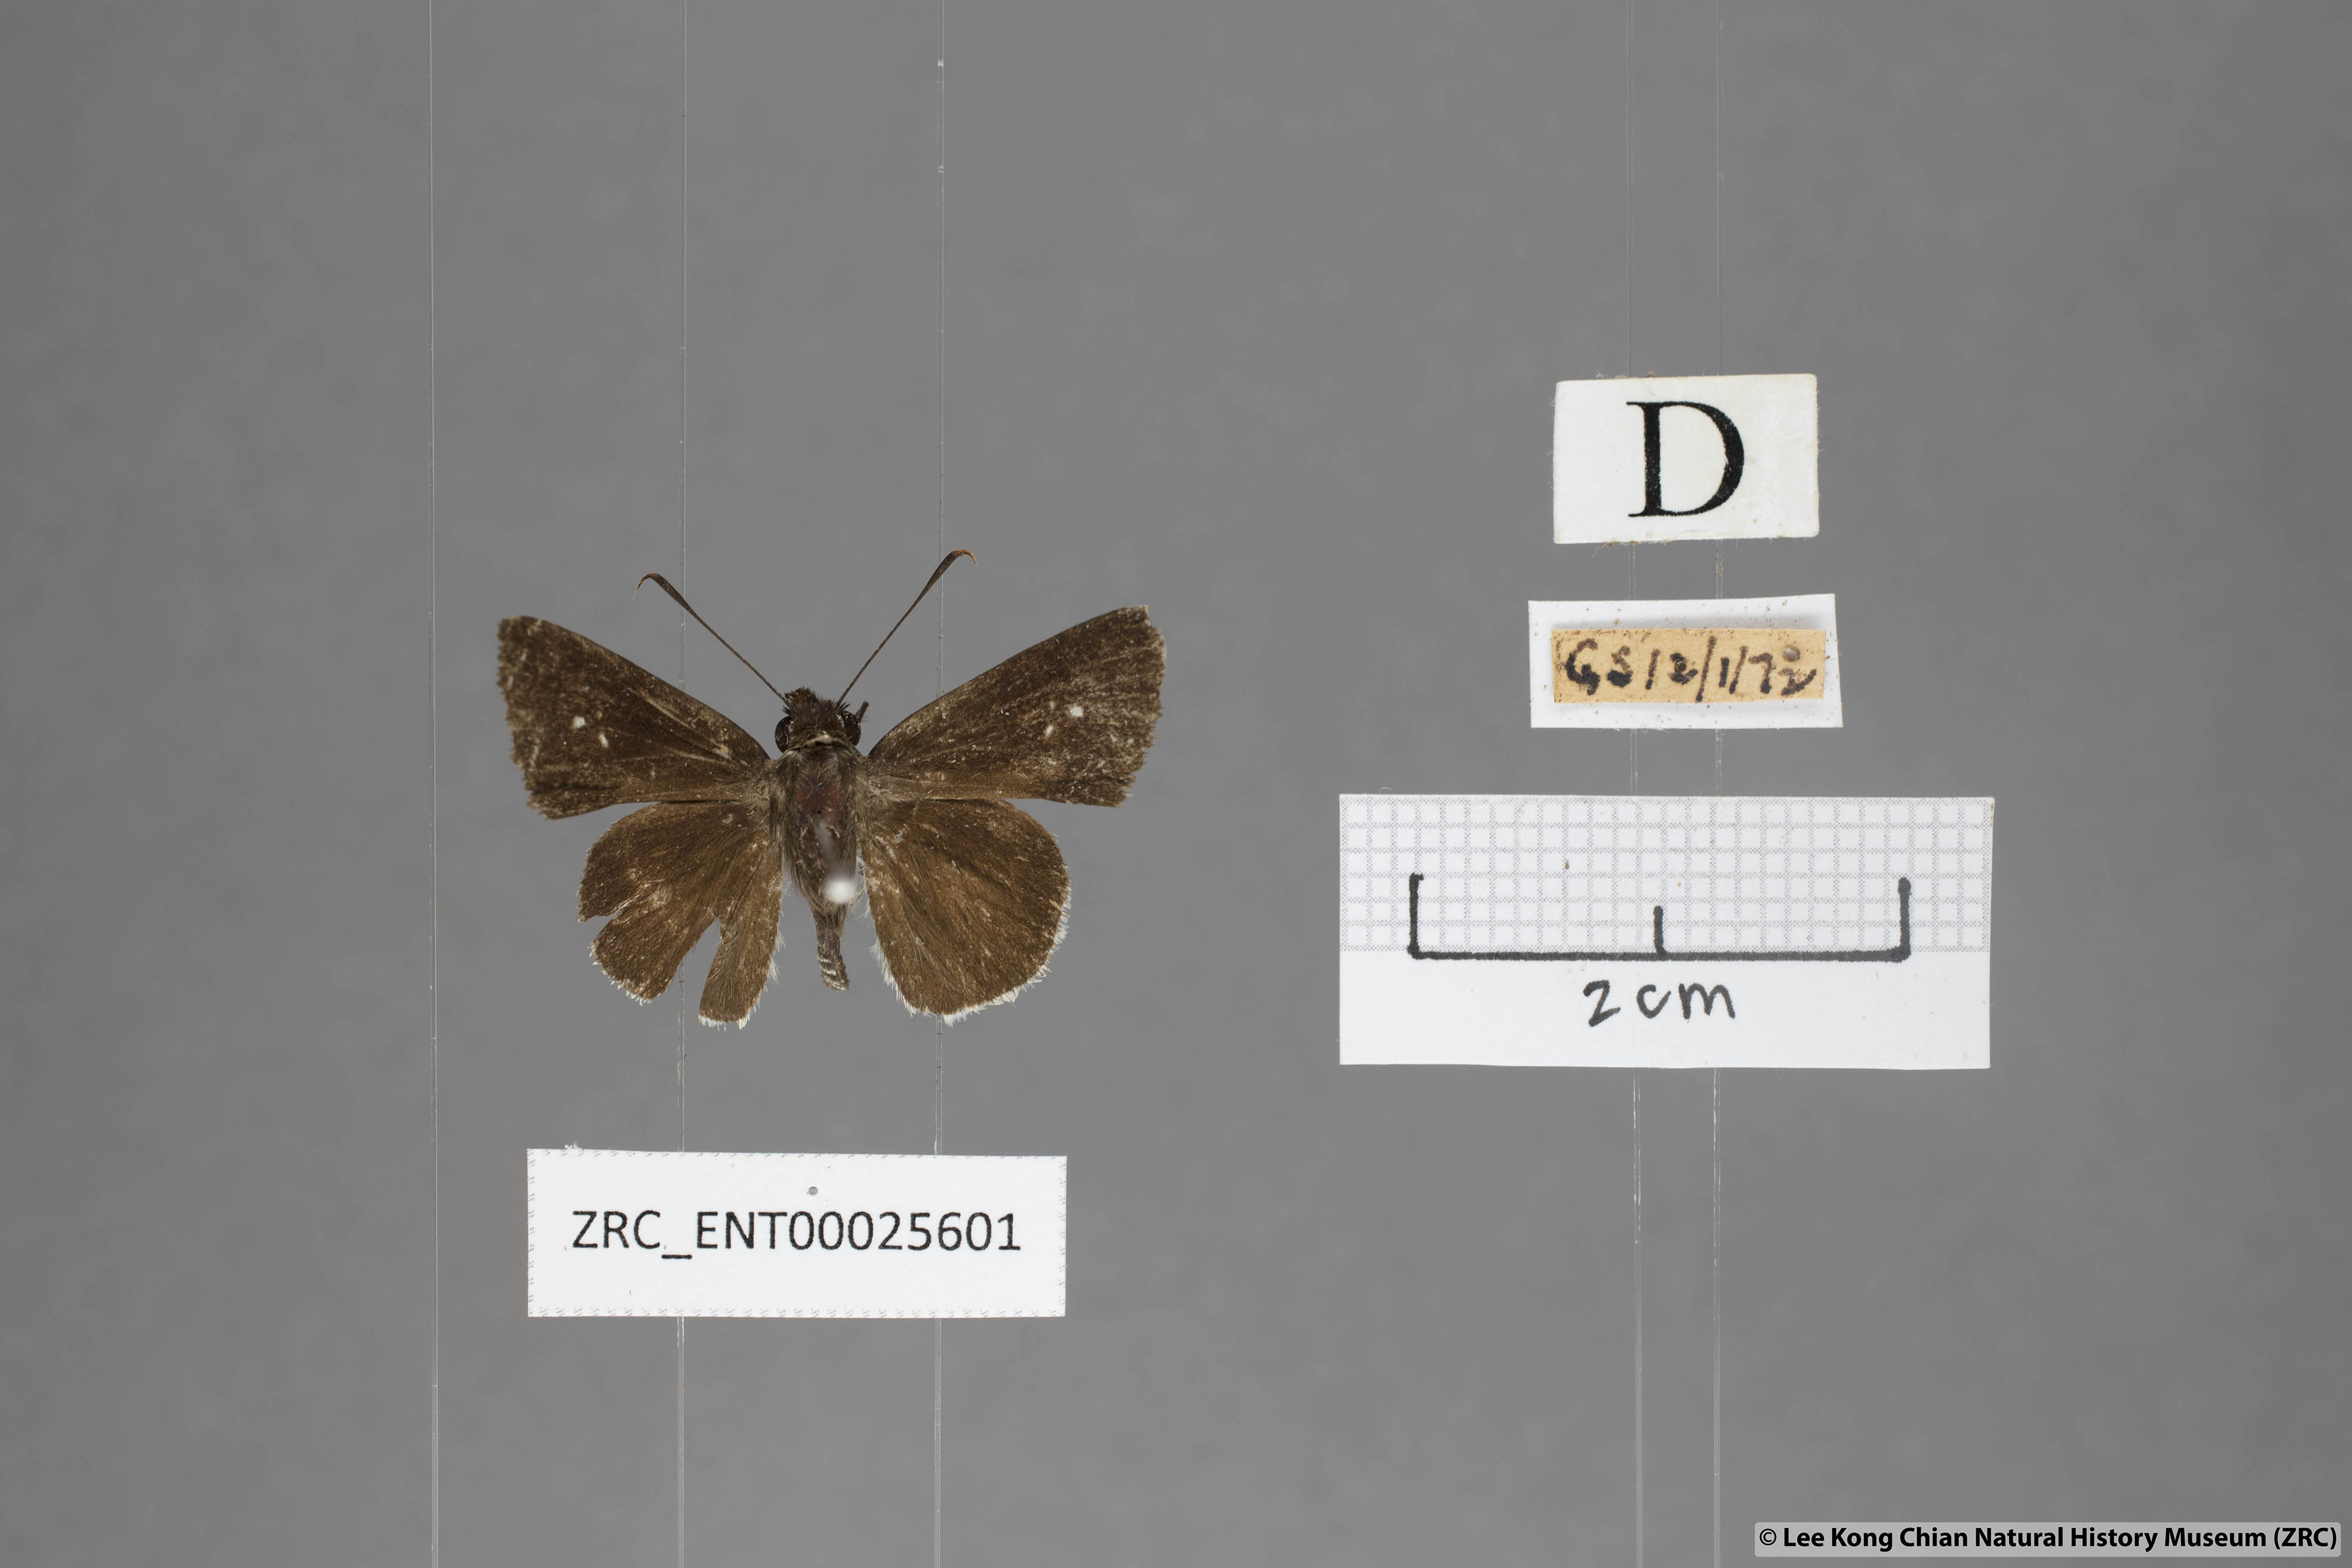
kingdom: Animalia
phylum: Arthropoda
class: Insecta
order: Lepidoptera
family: Hesperiidae
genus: Suastus
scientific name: Suastus minuta
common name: Small palm bob
